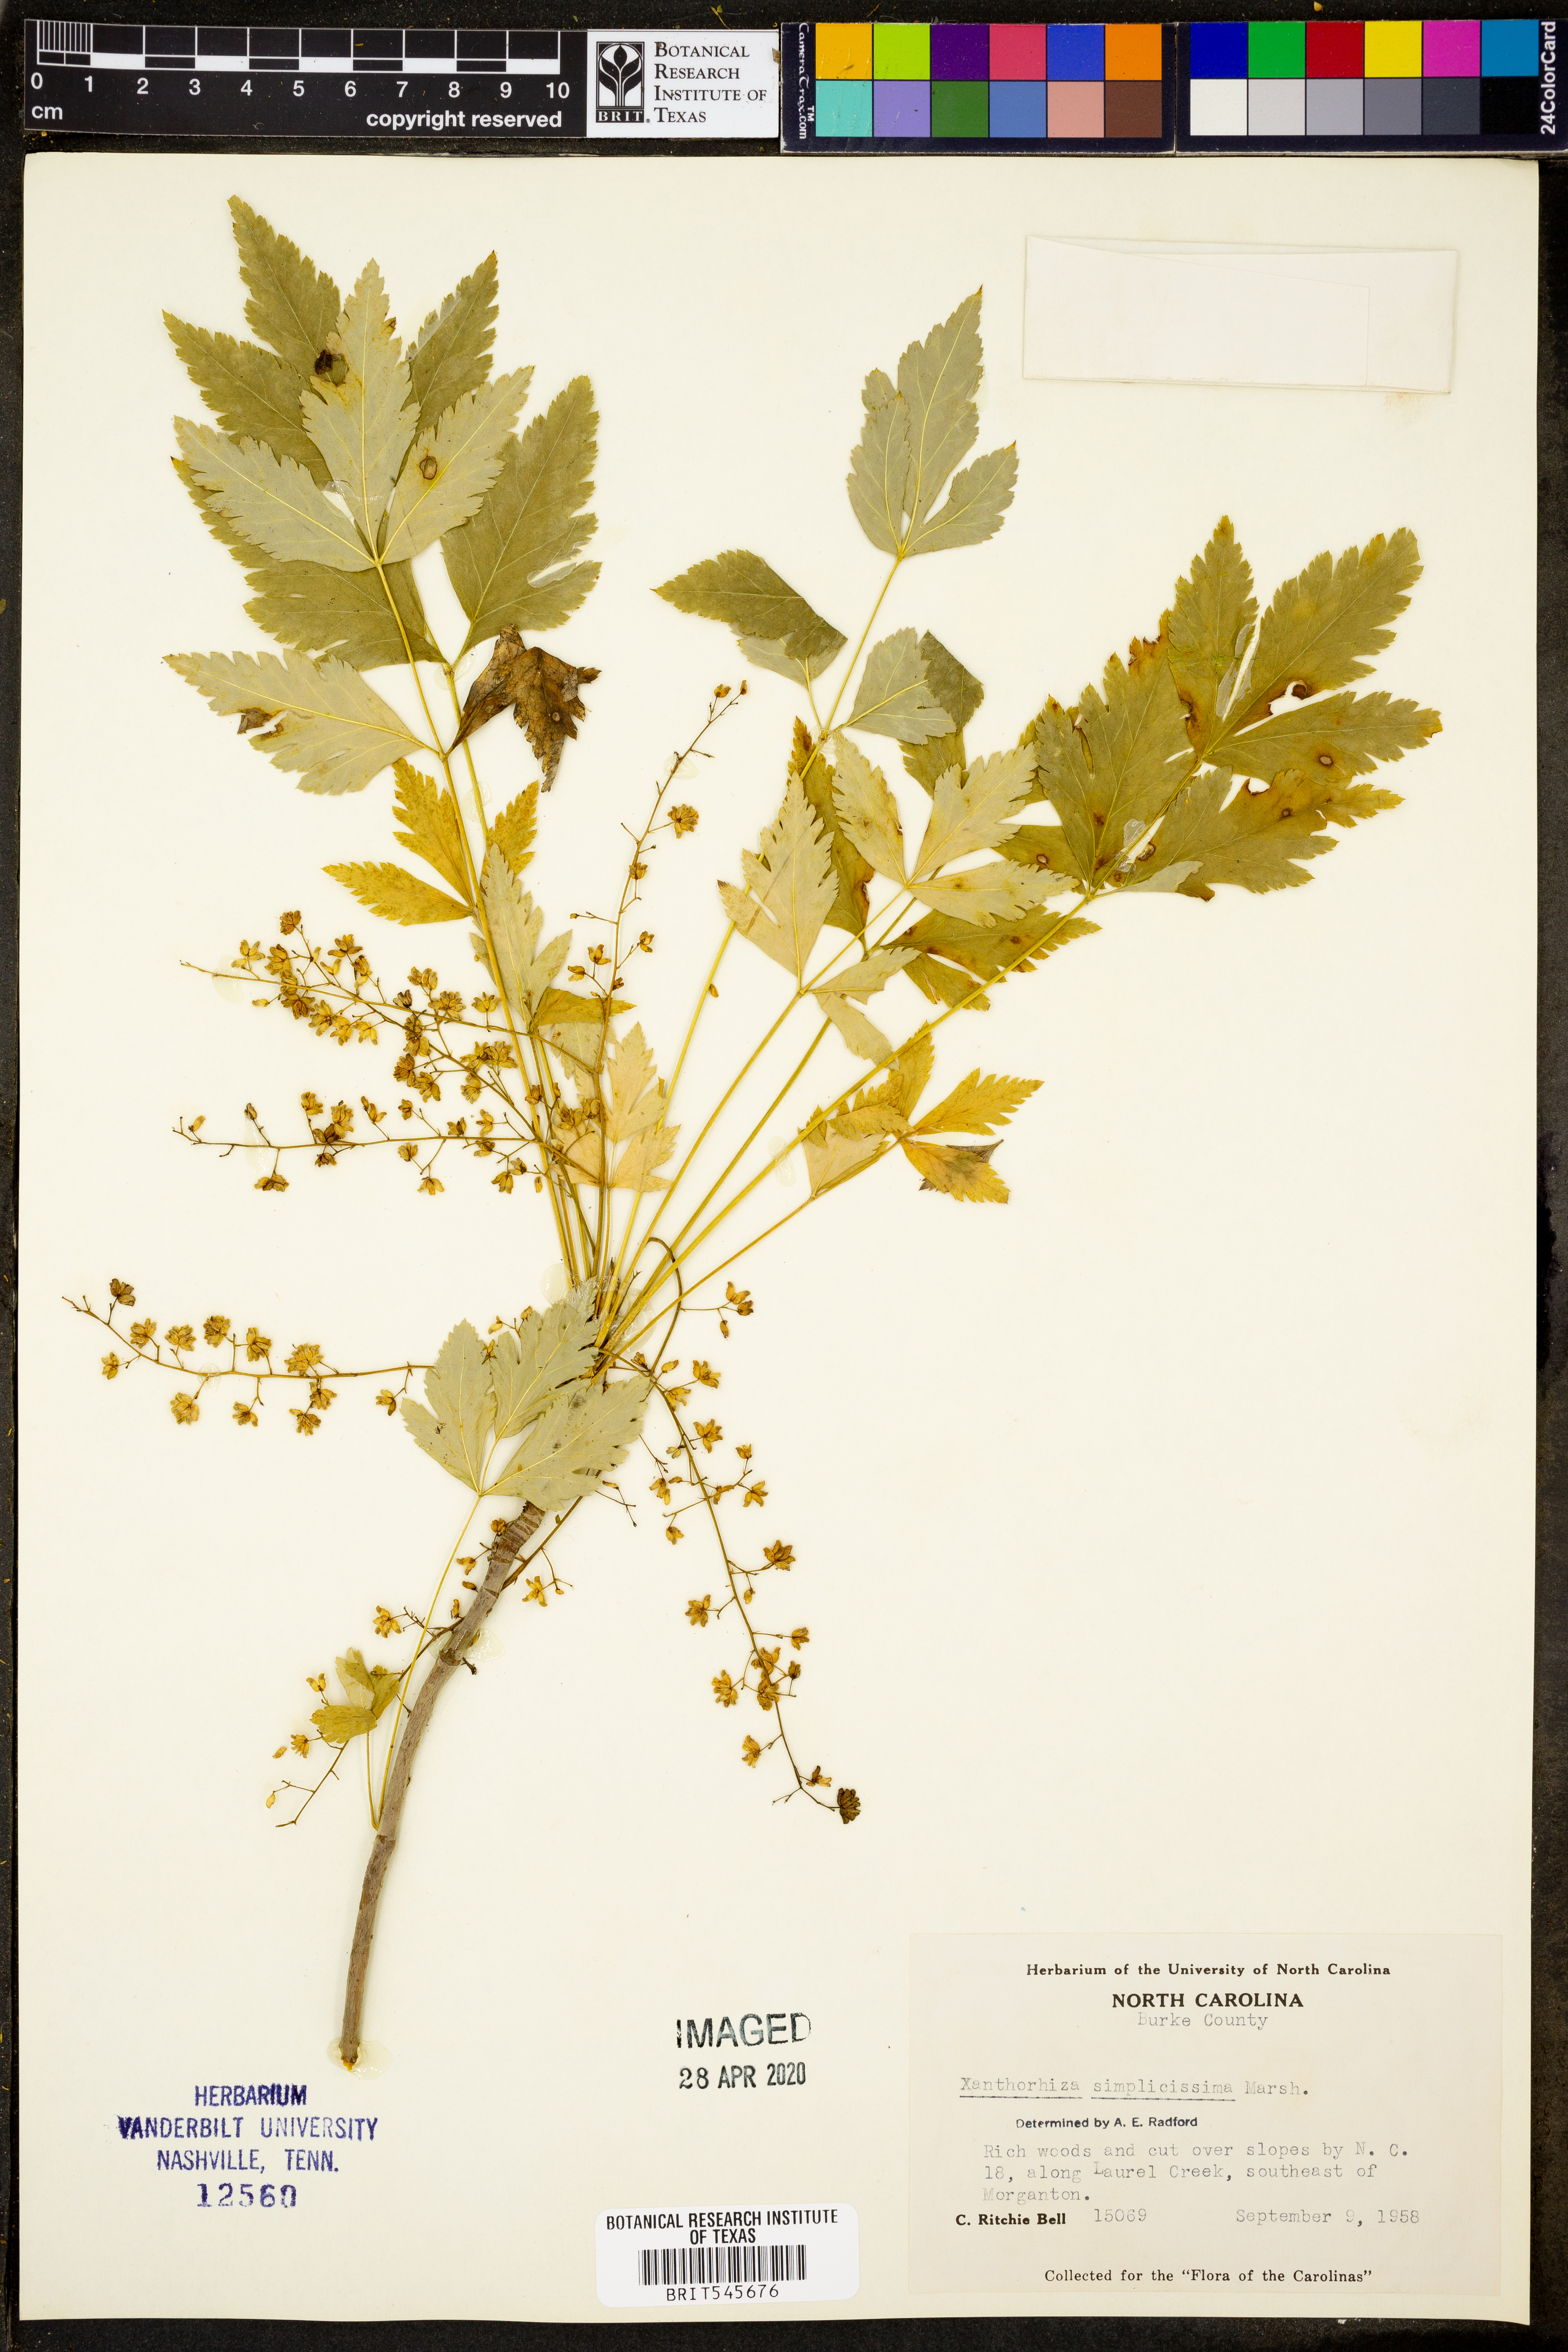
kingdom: Plantae
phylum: Tracheophyta
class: Magnoliopsida
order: Ranunculales
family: Ranunculaceae
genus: Xanthorhiza
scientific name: Xanthorhiza simplicissima
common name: Yellowroot
